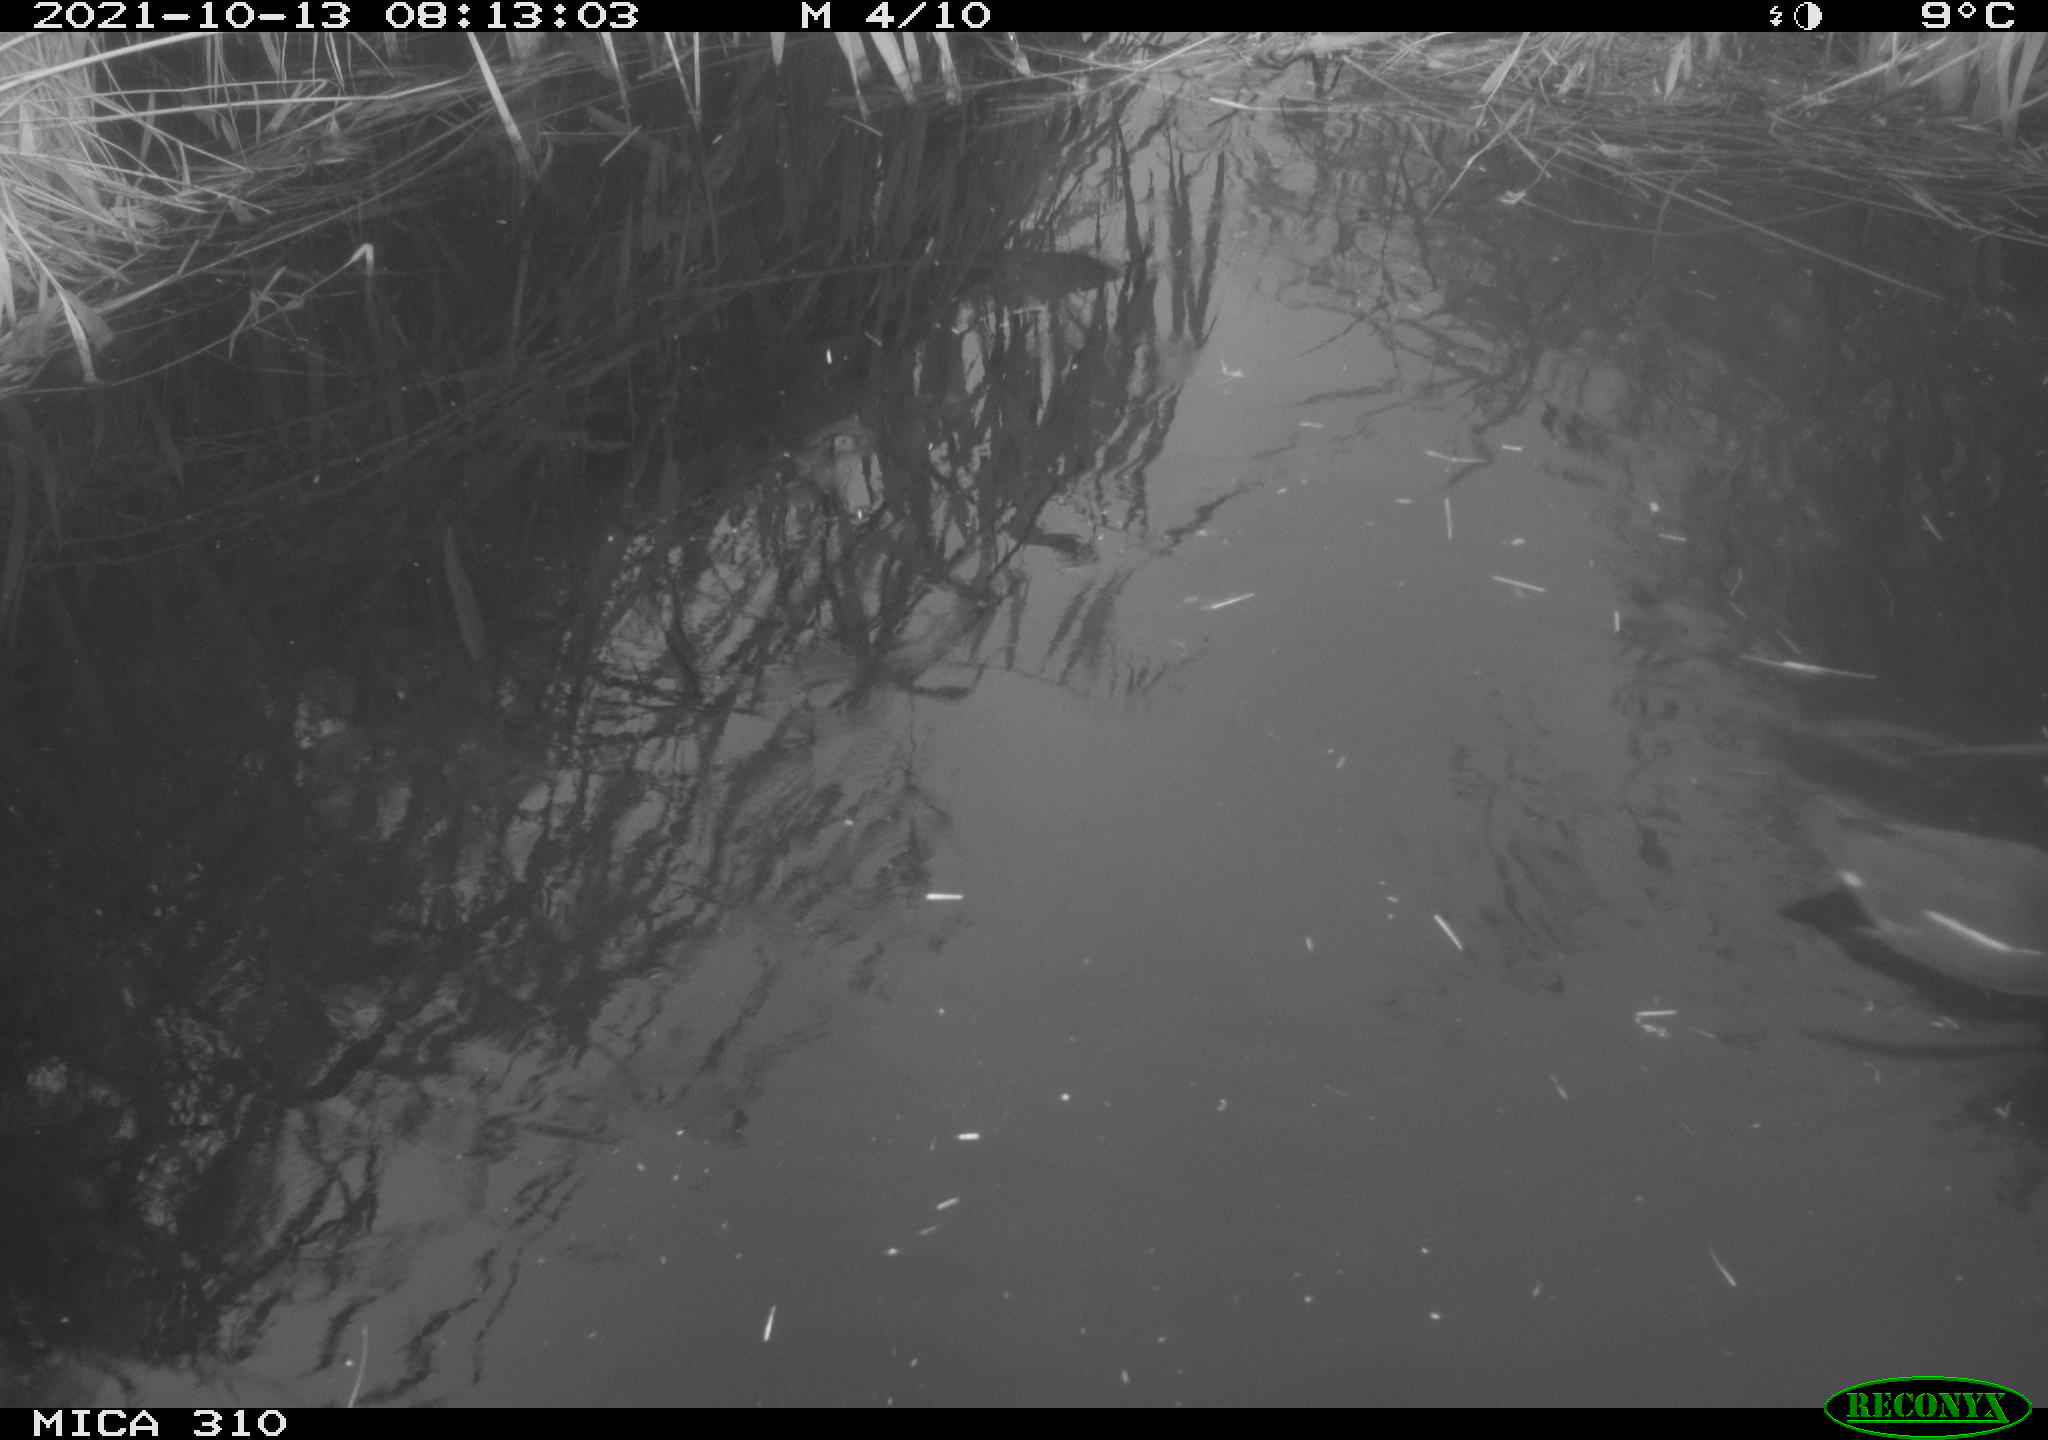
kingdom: Animalia
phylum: Chordata
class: Aves
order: Gruiformes
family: Rallidae
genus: Gallinula
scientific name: Gallinula chloropus
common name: Common moorhen
